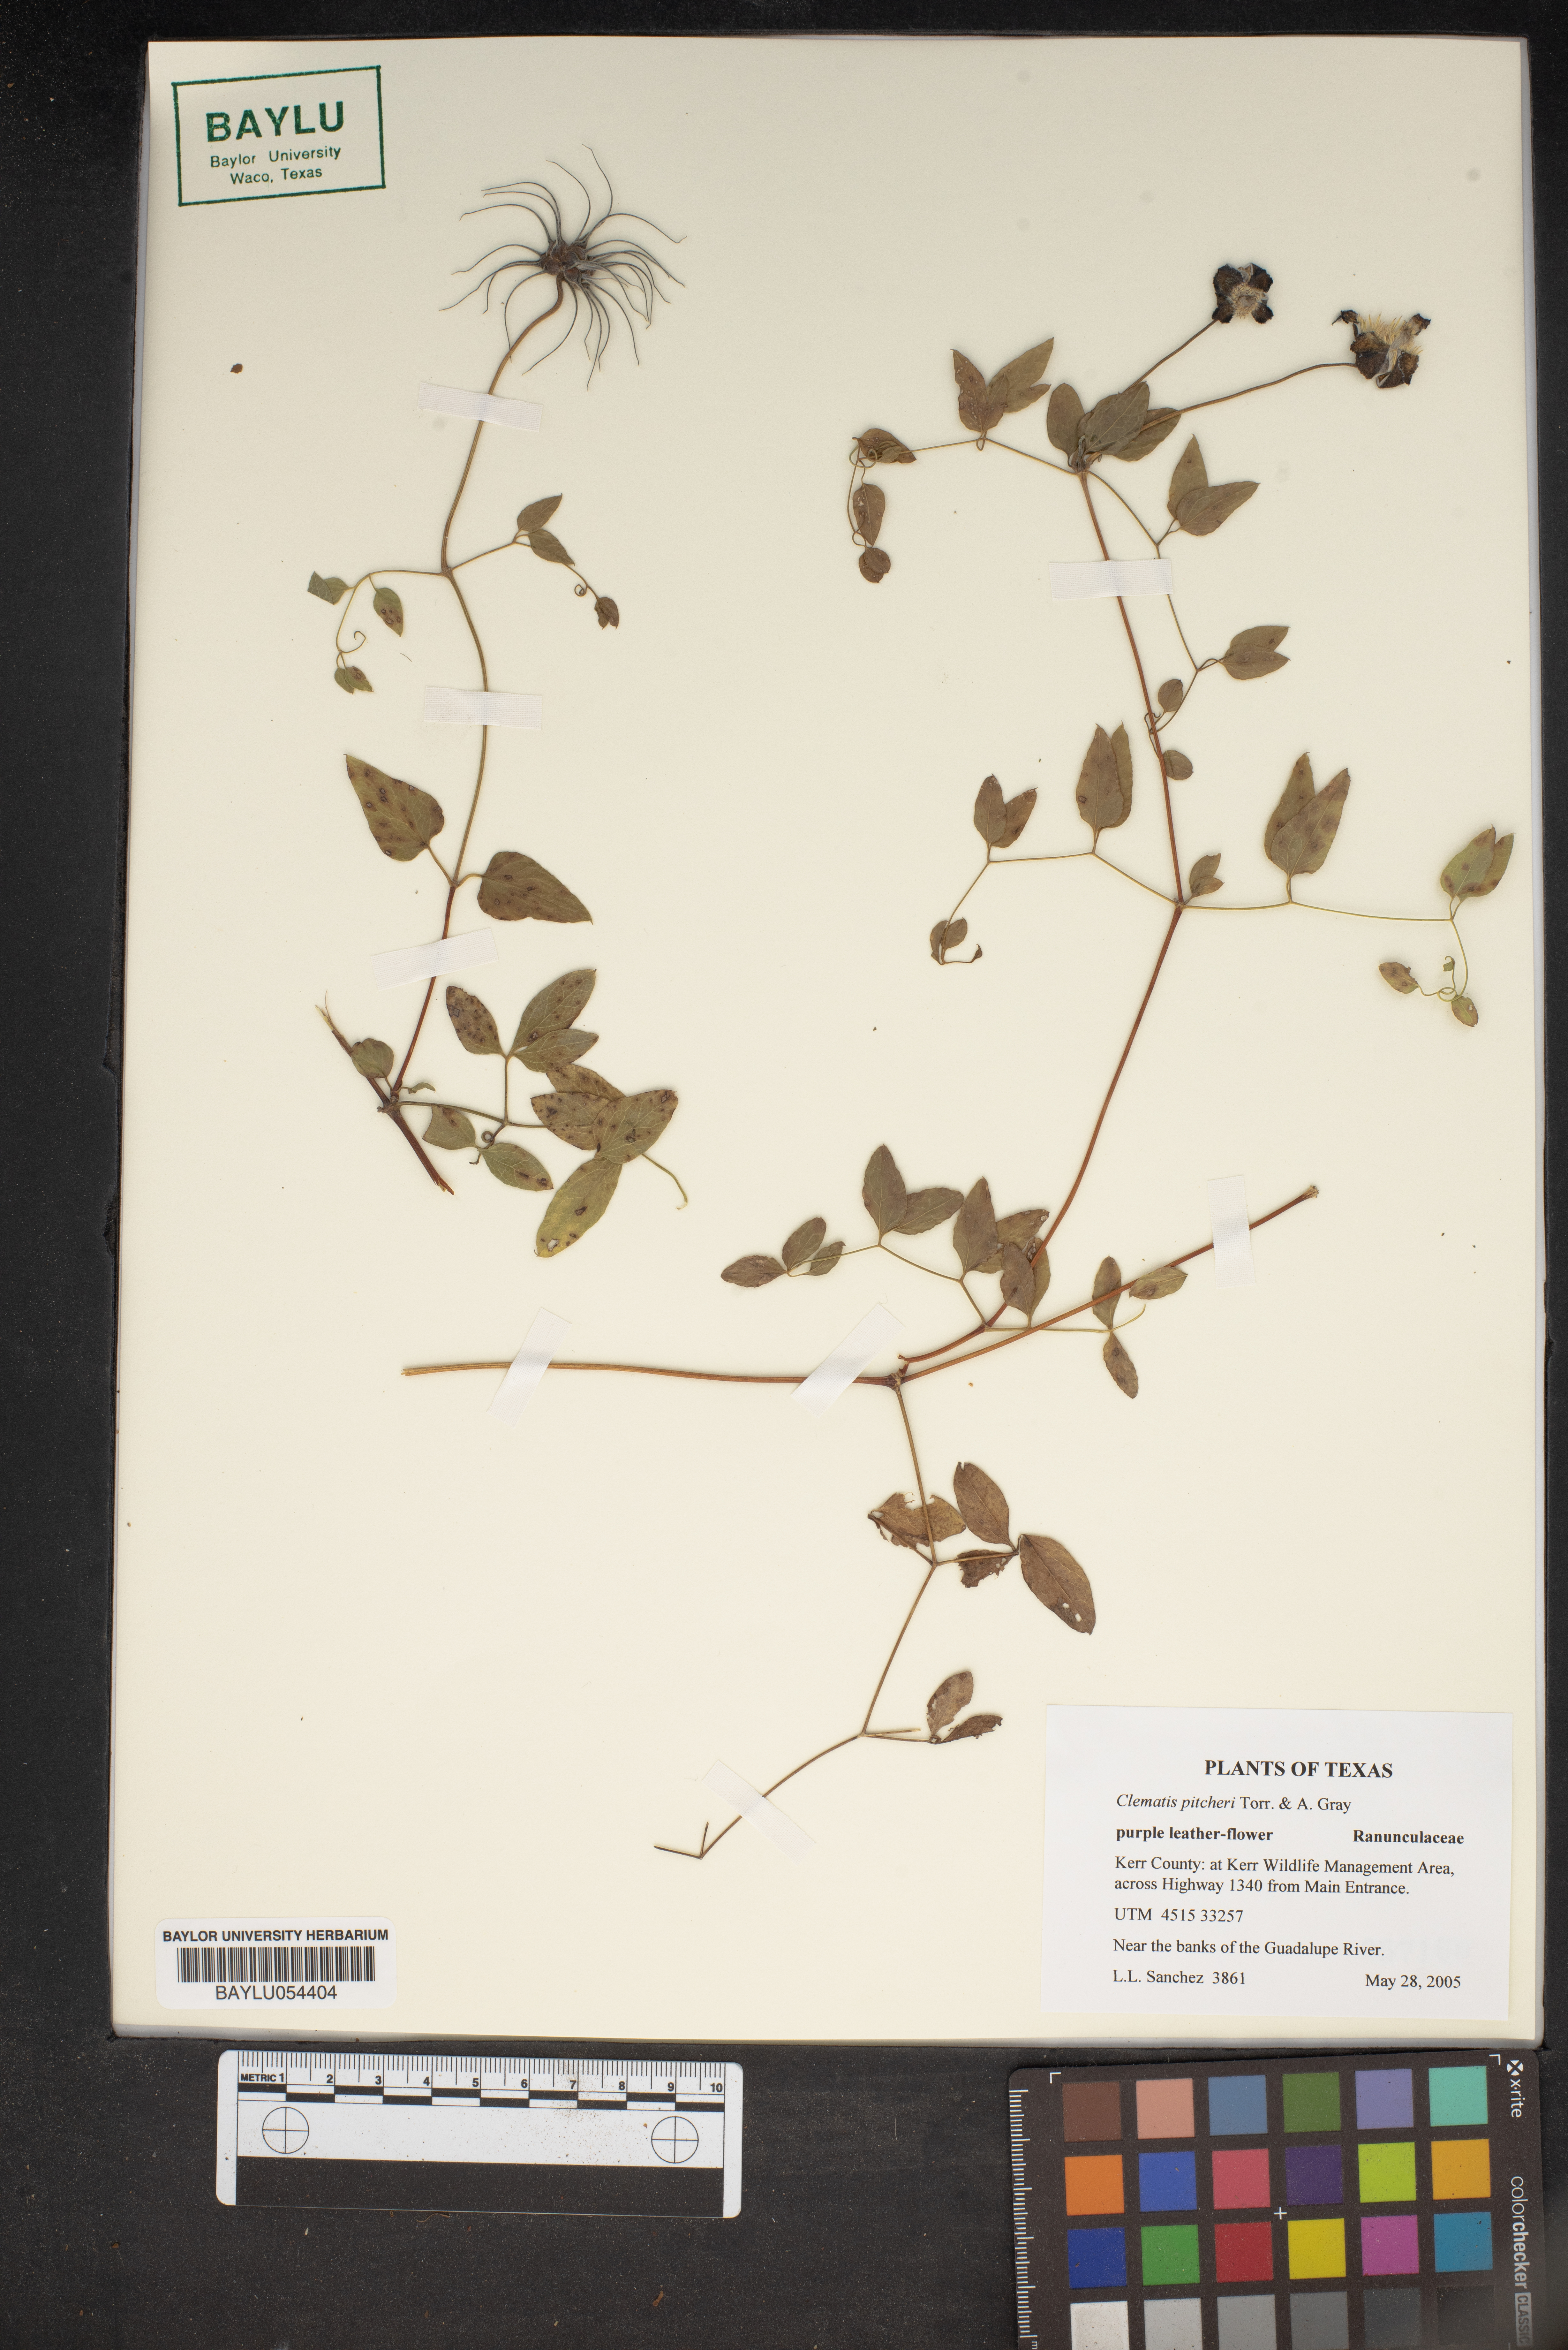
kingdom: Plantae
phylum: Tracheophyta
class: Magnoliopsida
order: Ranunculales
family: Ranunculaceae
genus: Clematis
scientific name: Clematis pitcheri
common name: Bellflower clematis
